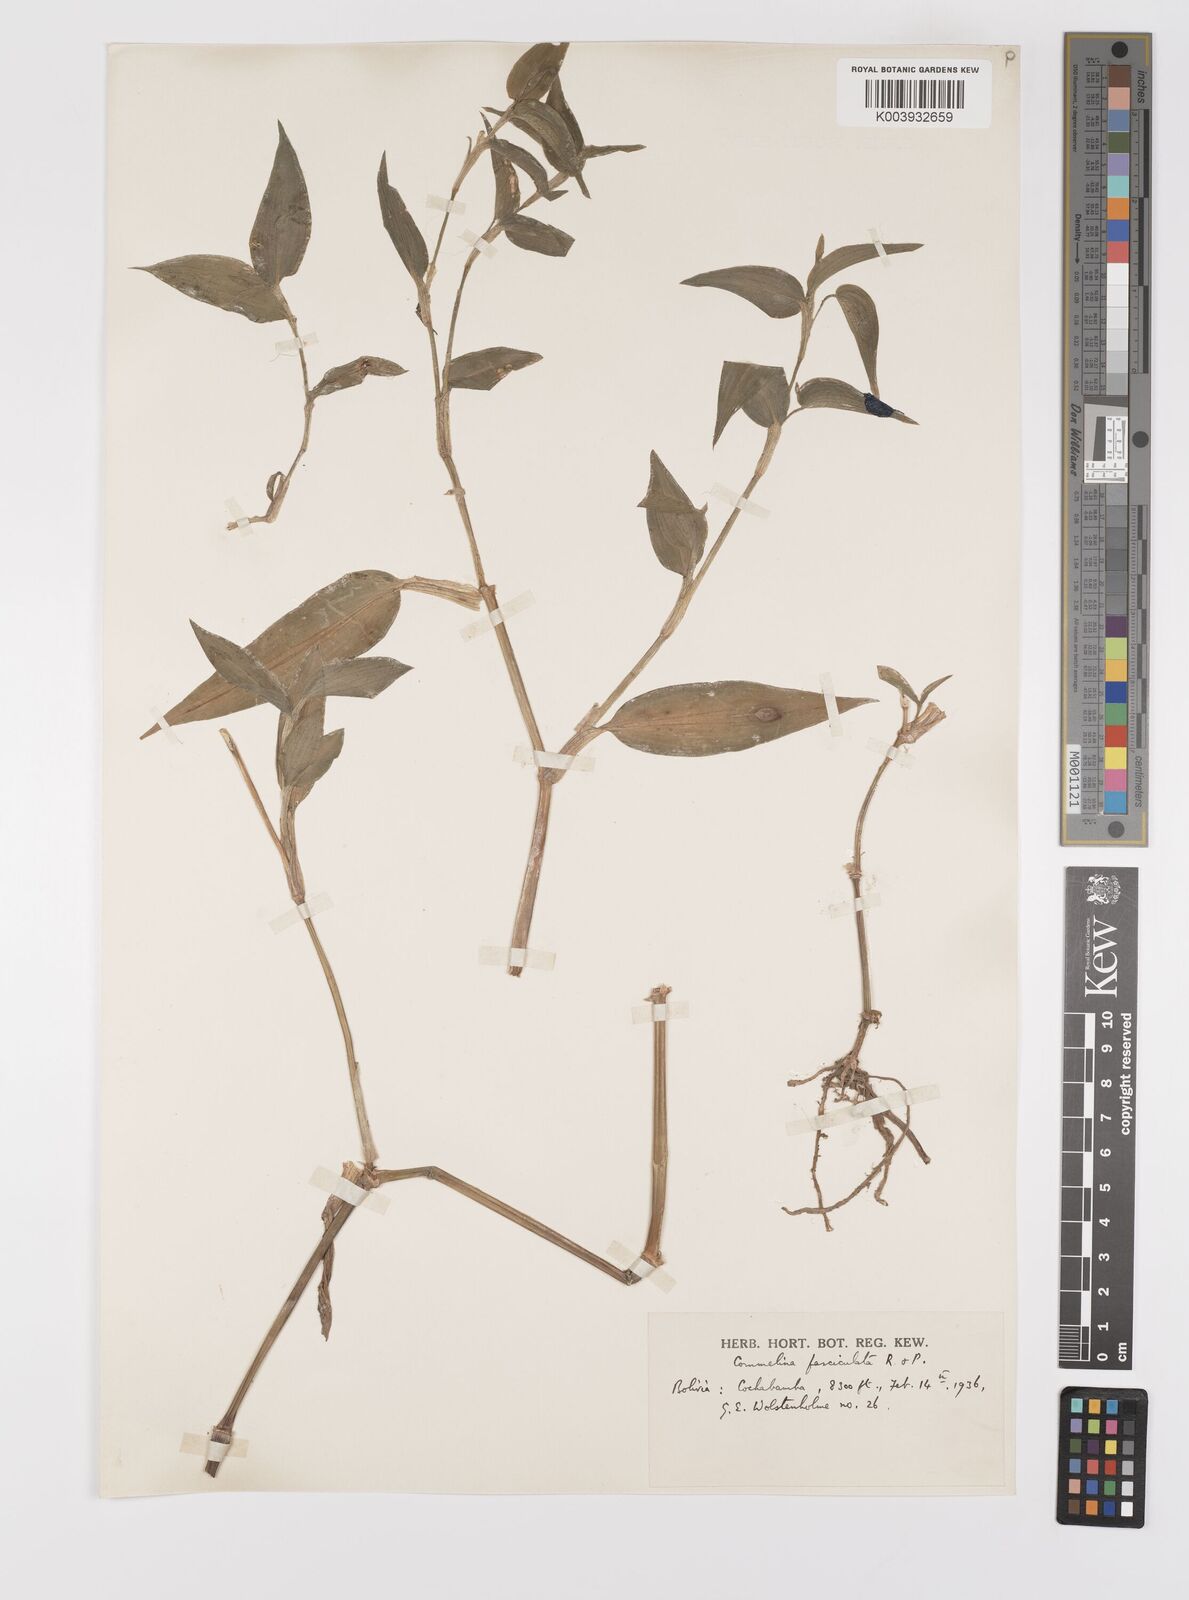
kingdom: Plantae
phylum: Tracheophyta
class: Liliopsida
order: Commelinales
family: Commelinaceae
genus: Commelina
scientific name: Commelina tuberosa
